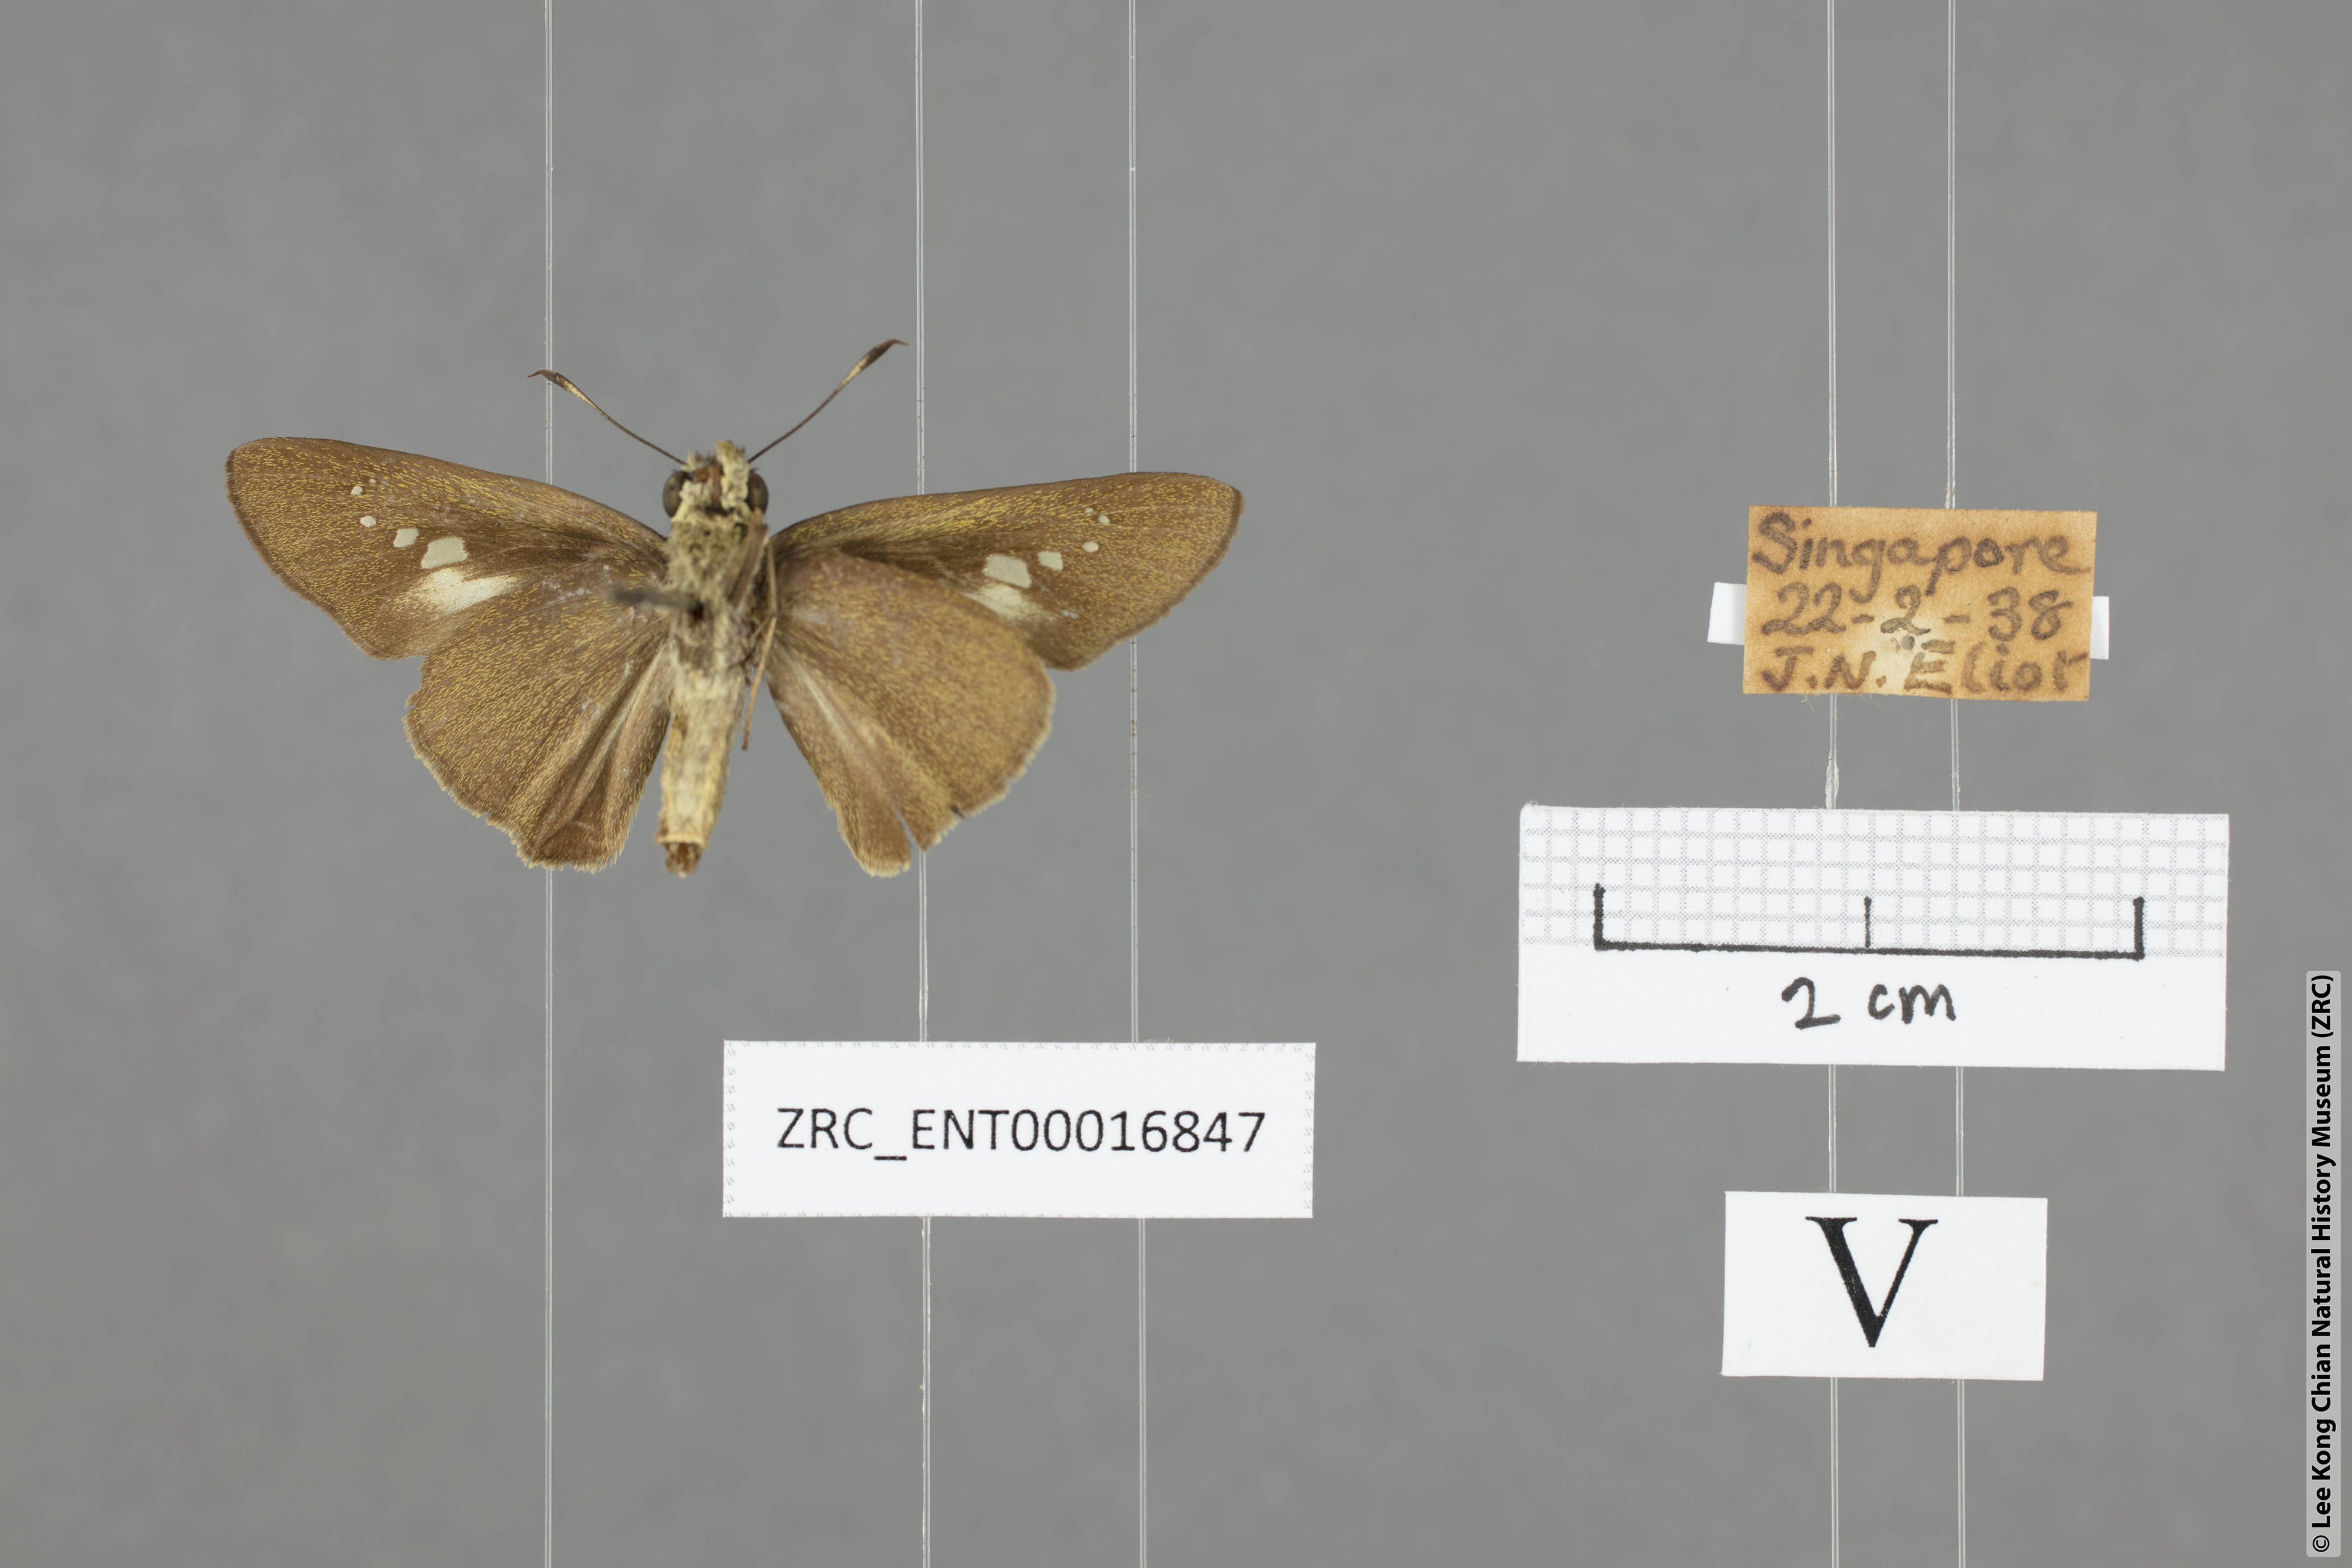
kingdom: Animalia
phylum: Arthropoda
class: Insecta
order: Lepidoptera
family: Hesperiidae
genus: Caltoris
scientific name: Caltoris philippina
